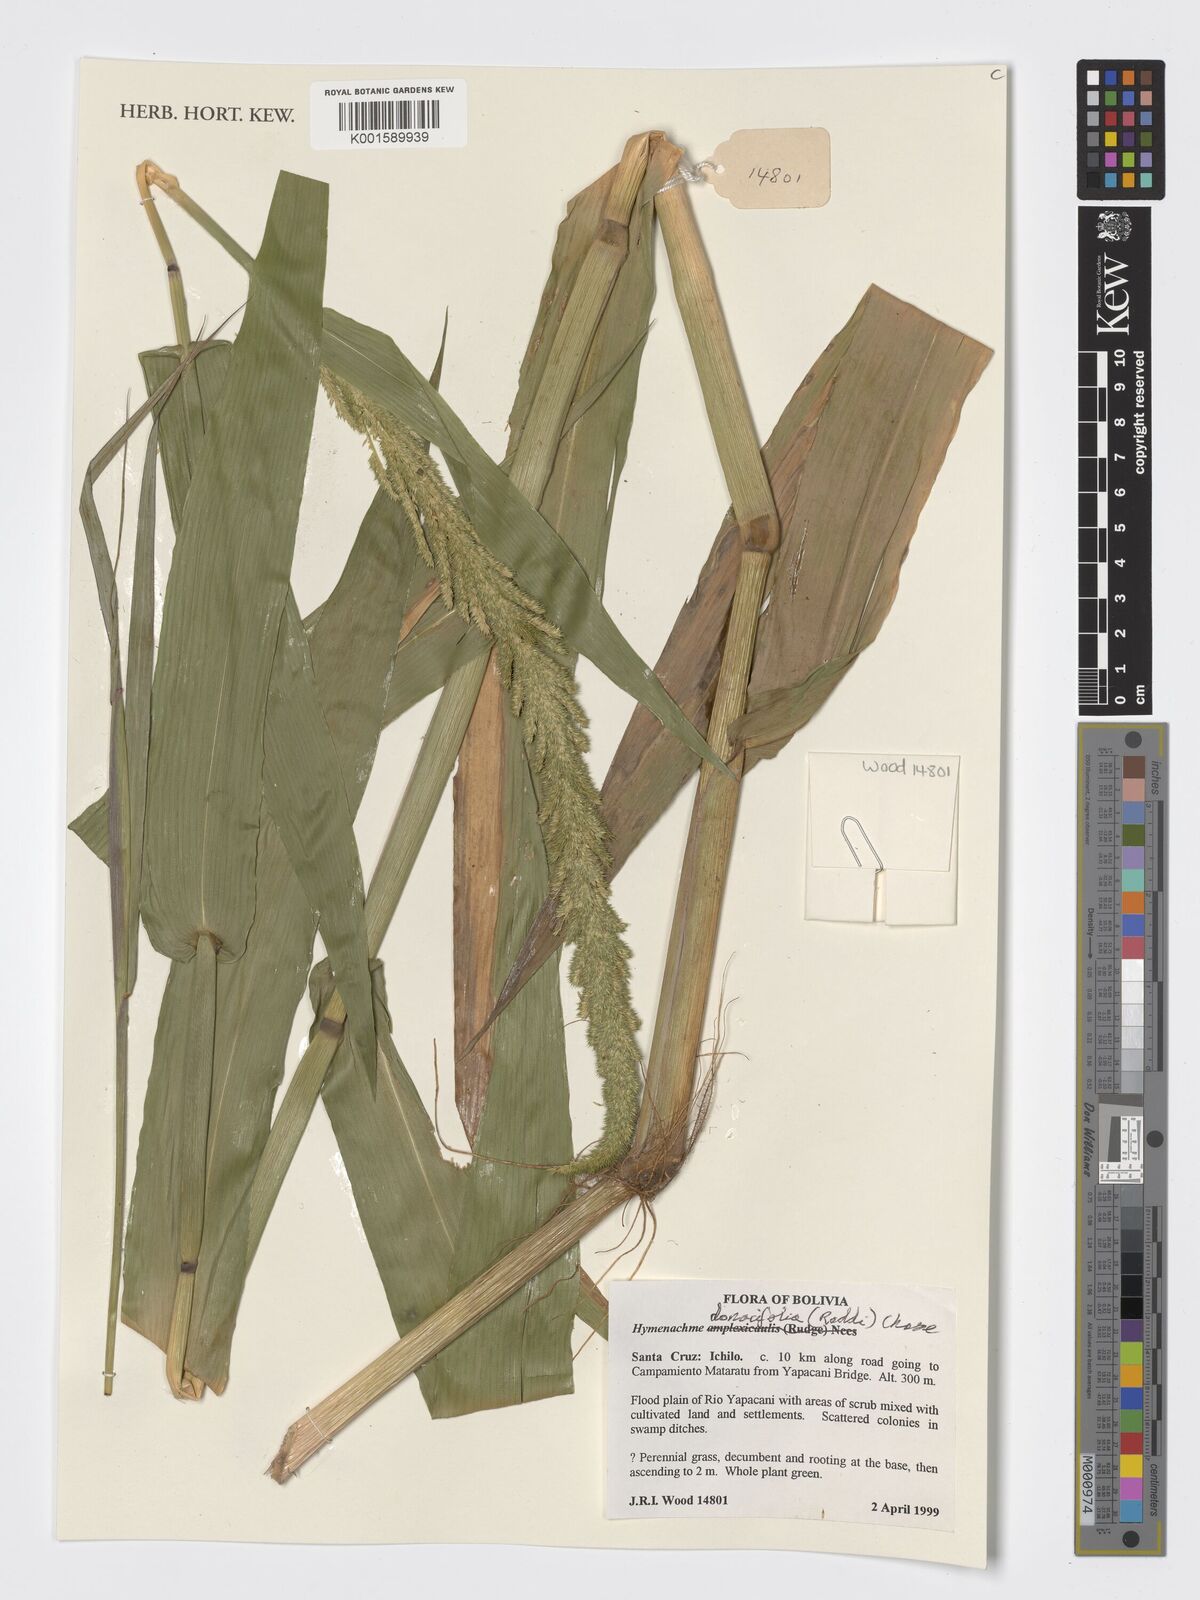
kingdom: Plantae
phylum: Tracheophyta
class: Liliopsida
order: Poales
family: Poaceae
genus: Hymenachne
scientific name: Hymenachne donacifolia
